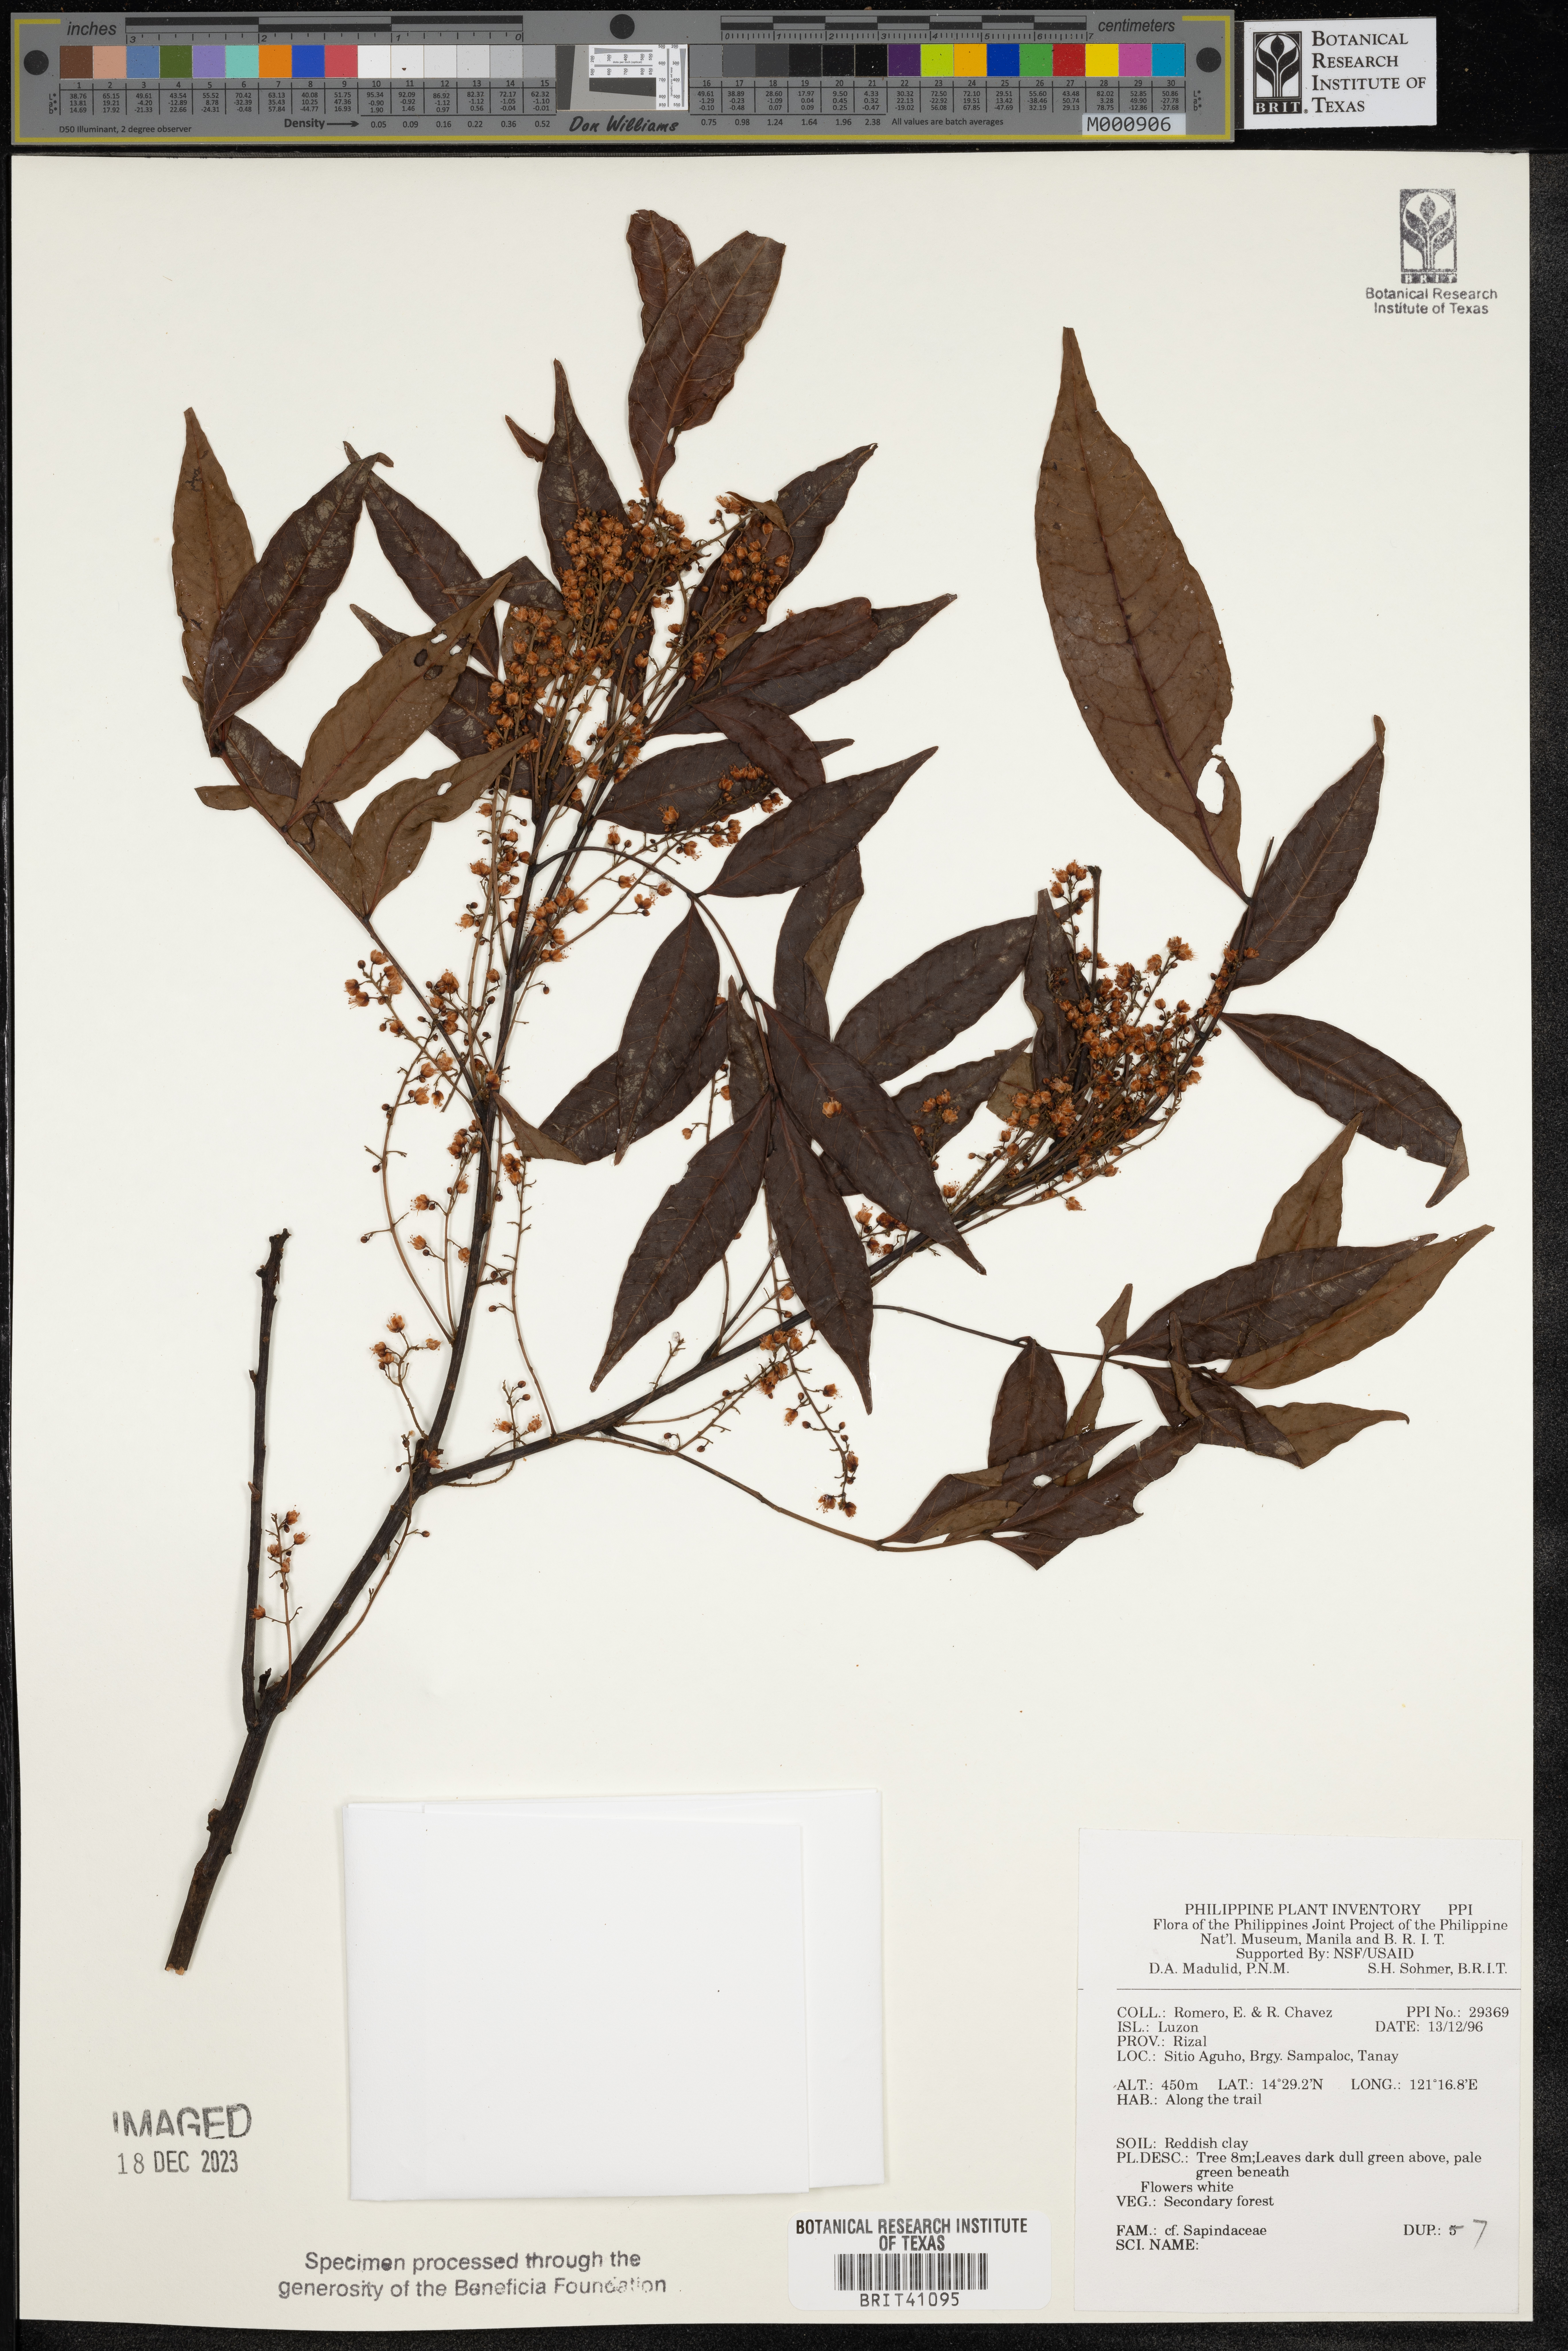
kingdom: Plantae
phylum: Tracheophyta
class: Magnoliopsida
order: Sapindales
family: Sapindaceae
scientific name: Sapindaceae
